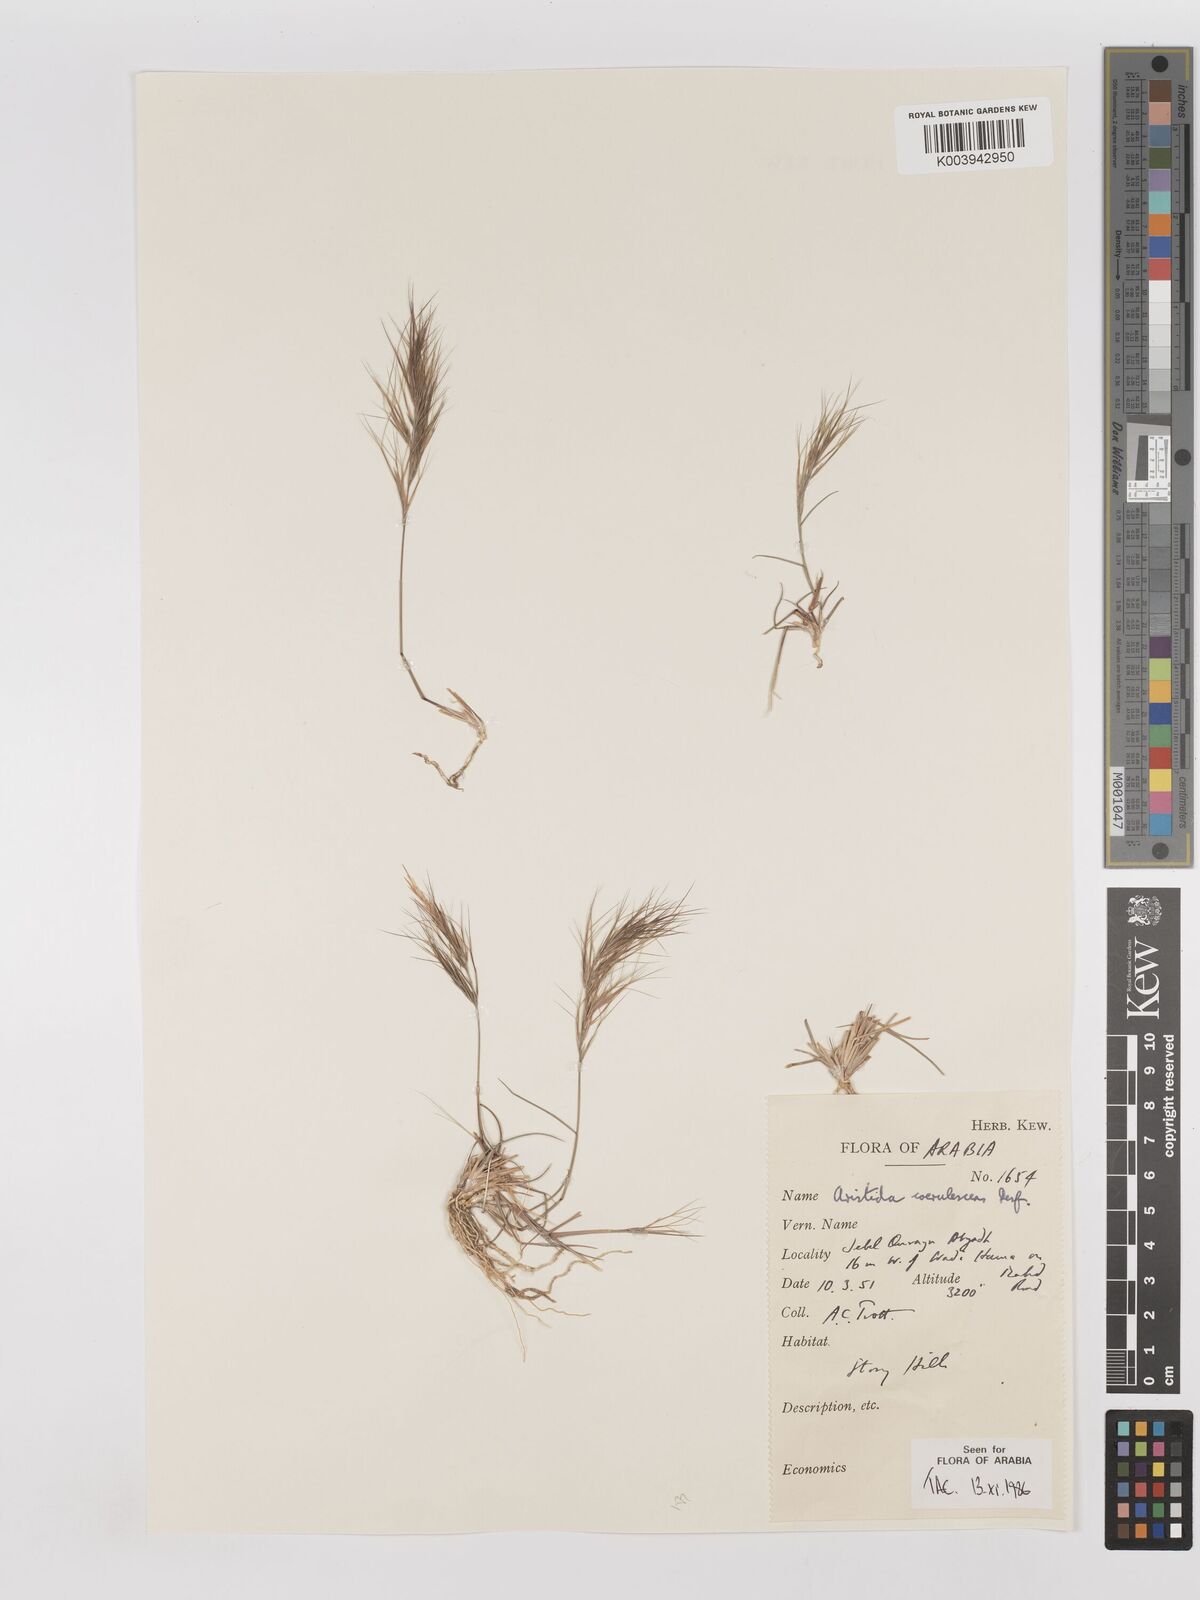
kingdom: Plantae
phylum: Tracheophyta
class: Liliopsida
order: Poales
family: Poaceae
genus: Aristida
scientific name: Aristida adscensionis
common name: Sixweeks threeawn
